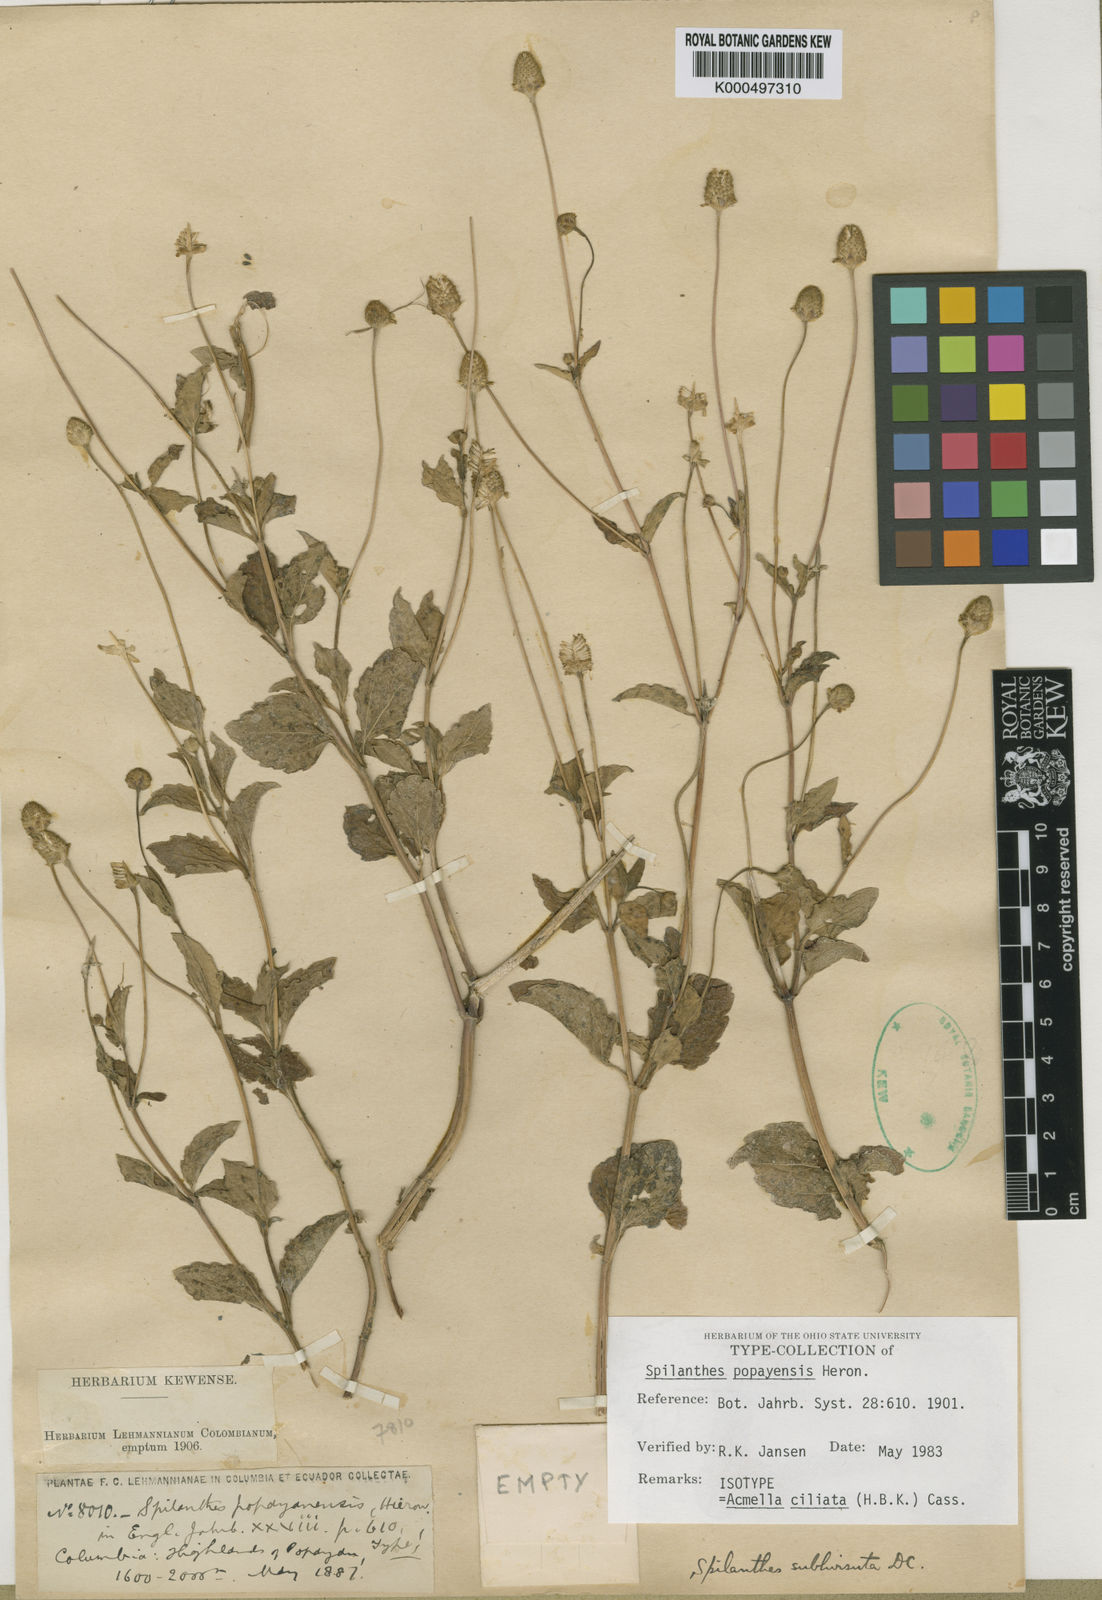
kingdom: Plantae
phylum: Tracheophyta
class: Magnoliopsida
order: Asterales
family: Asteraceae
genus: Acmella
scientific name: Acmella ciliata
